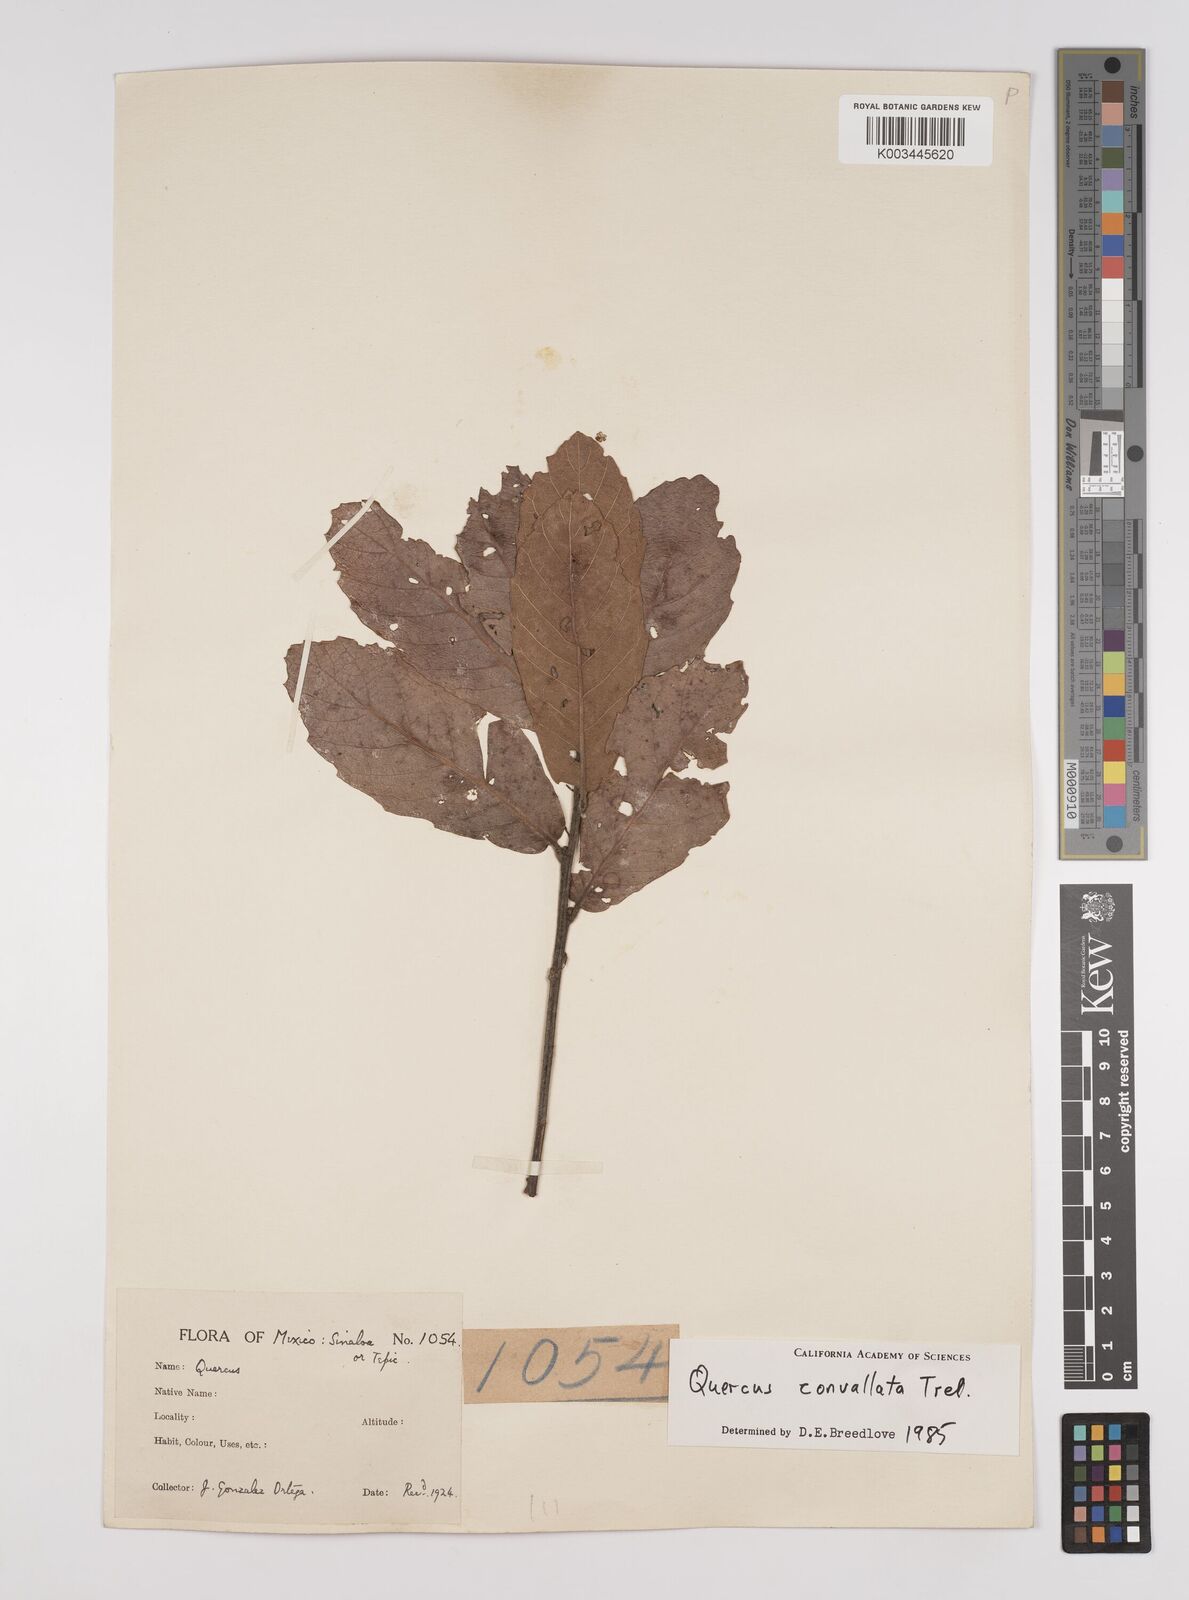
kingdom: Plantae
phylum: Tracheophyta
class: Magnoliopsida
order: Fagales
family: Fagaceae
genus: Quercus
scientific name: Quercus convallata
